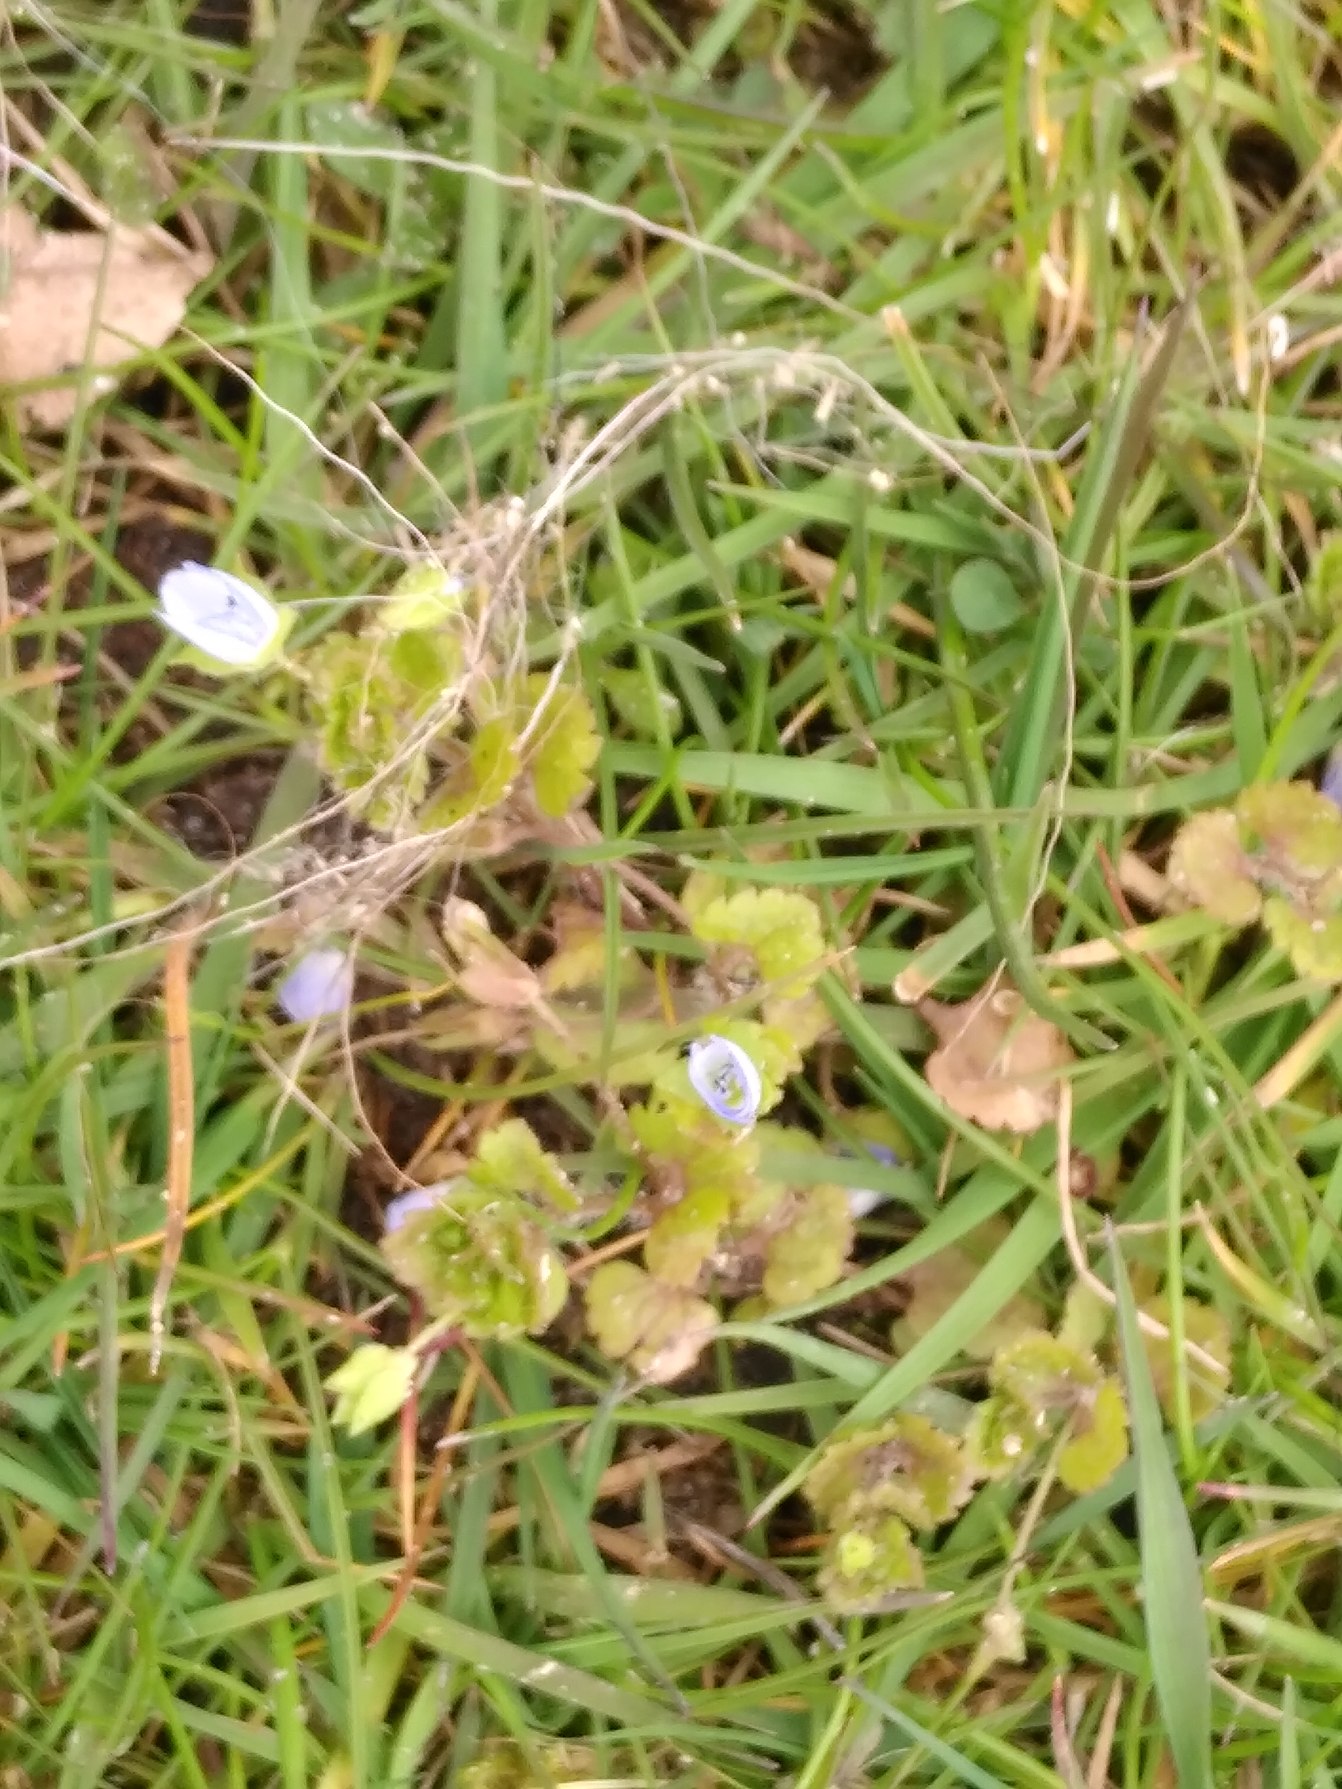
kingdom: Plantae
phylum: Tracheophyta
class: Magnoliopsida
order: Lamiales
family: Plantaginaceae
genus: Veronica
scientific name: Veronica persica
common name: Storkronet ærenpris
